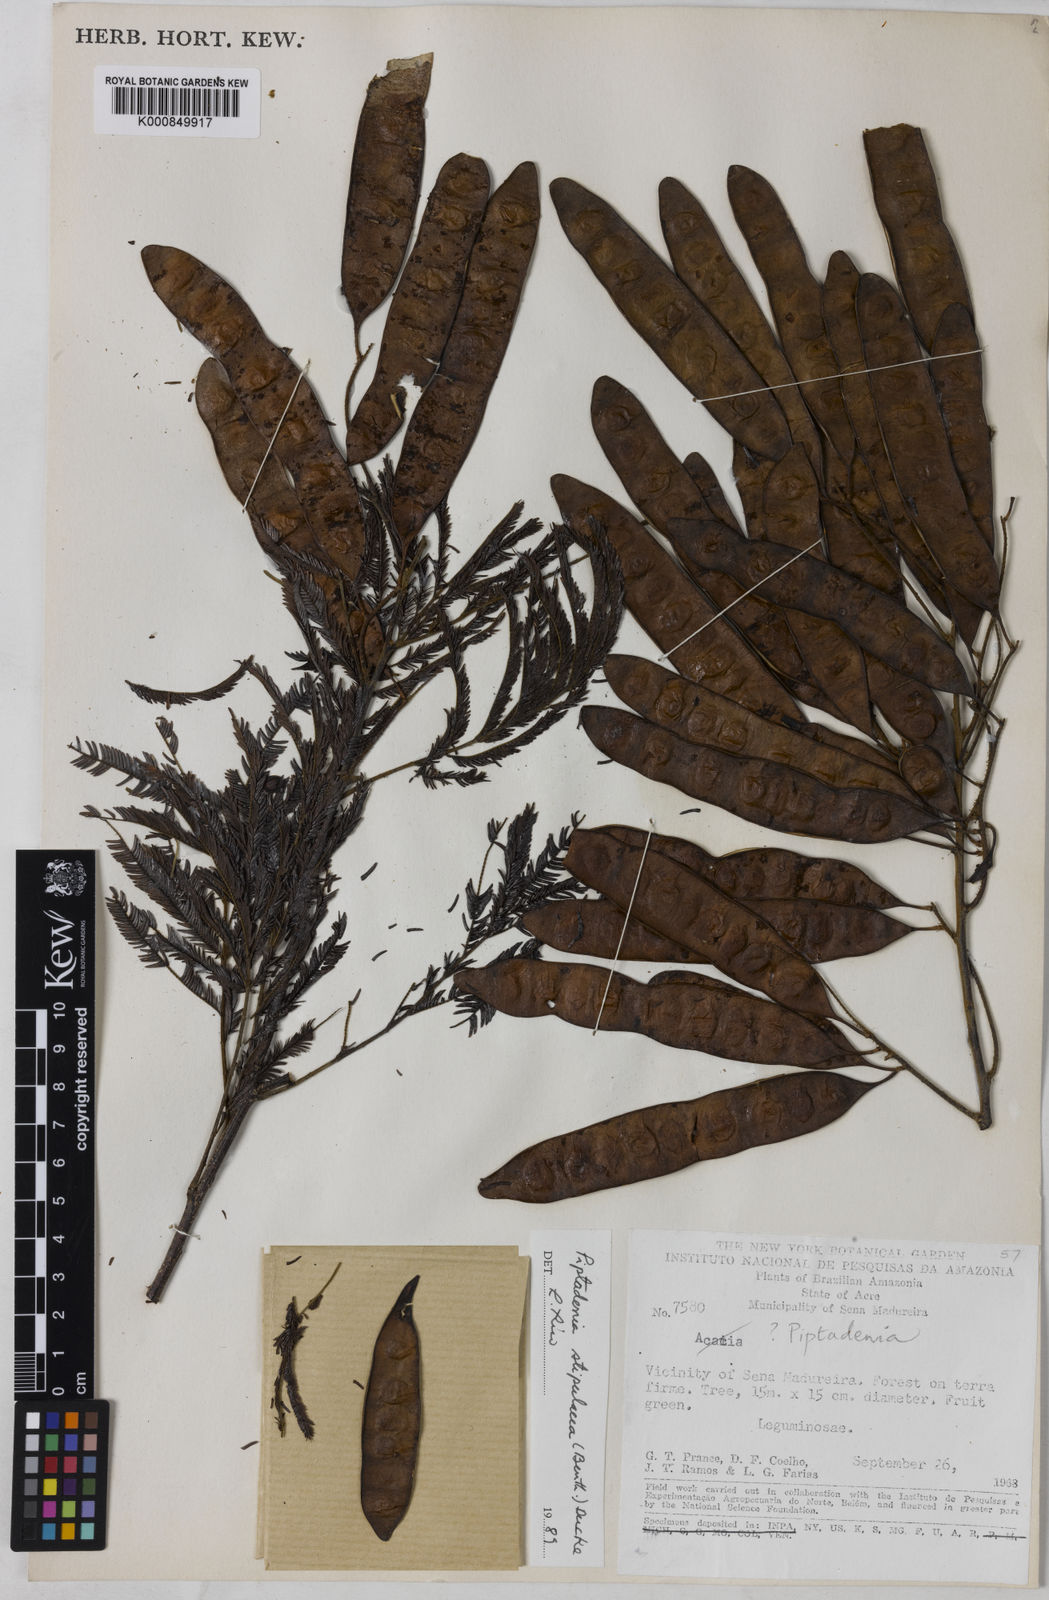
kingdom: Plantae
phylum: Tracheophyta
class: Magnoliopsida
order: Fabales
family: Fabaceae
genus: Piptadenia
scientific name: Piptadenia retusa
